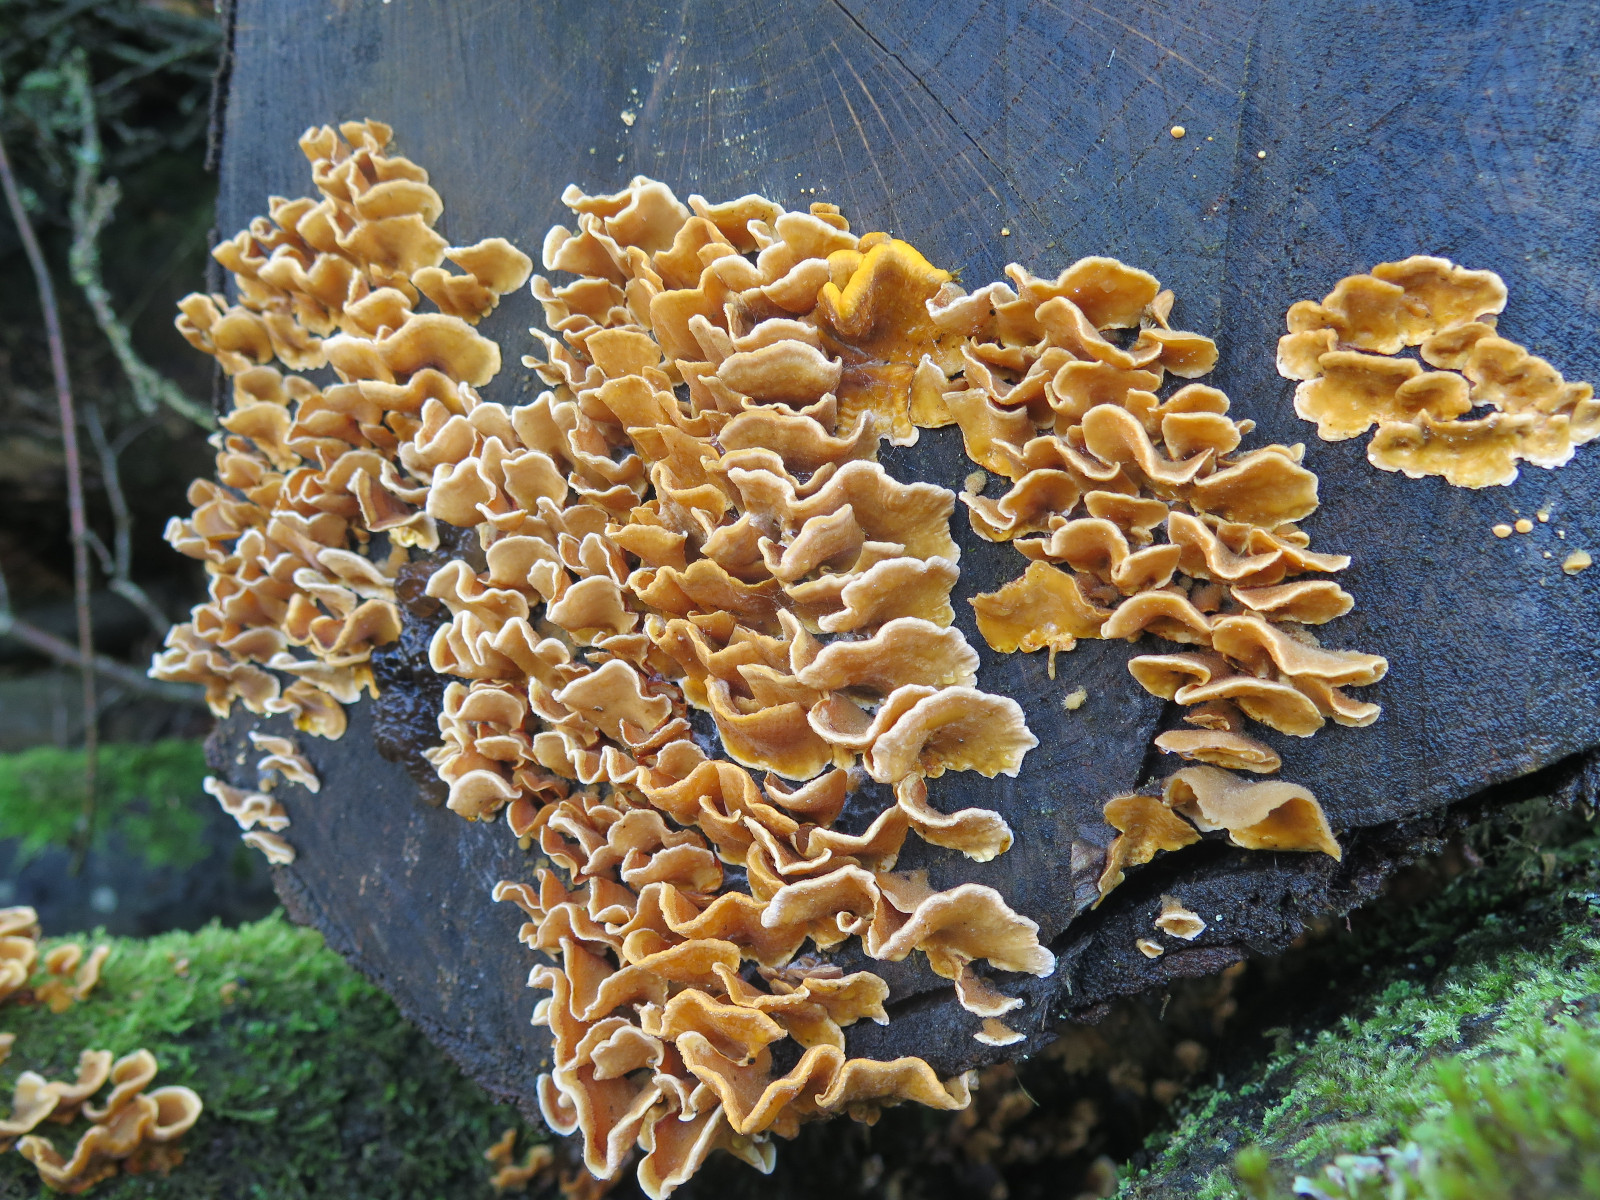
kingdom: Fungi
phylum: Basidiomycota
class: Agaricomycetes
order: Russulales
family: Stereaceae
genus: Stereum
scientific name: Stereum hirsutum
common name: håret lædersvamp
